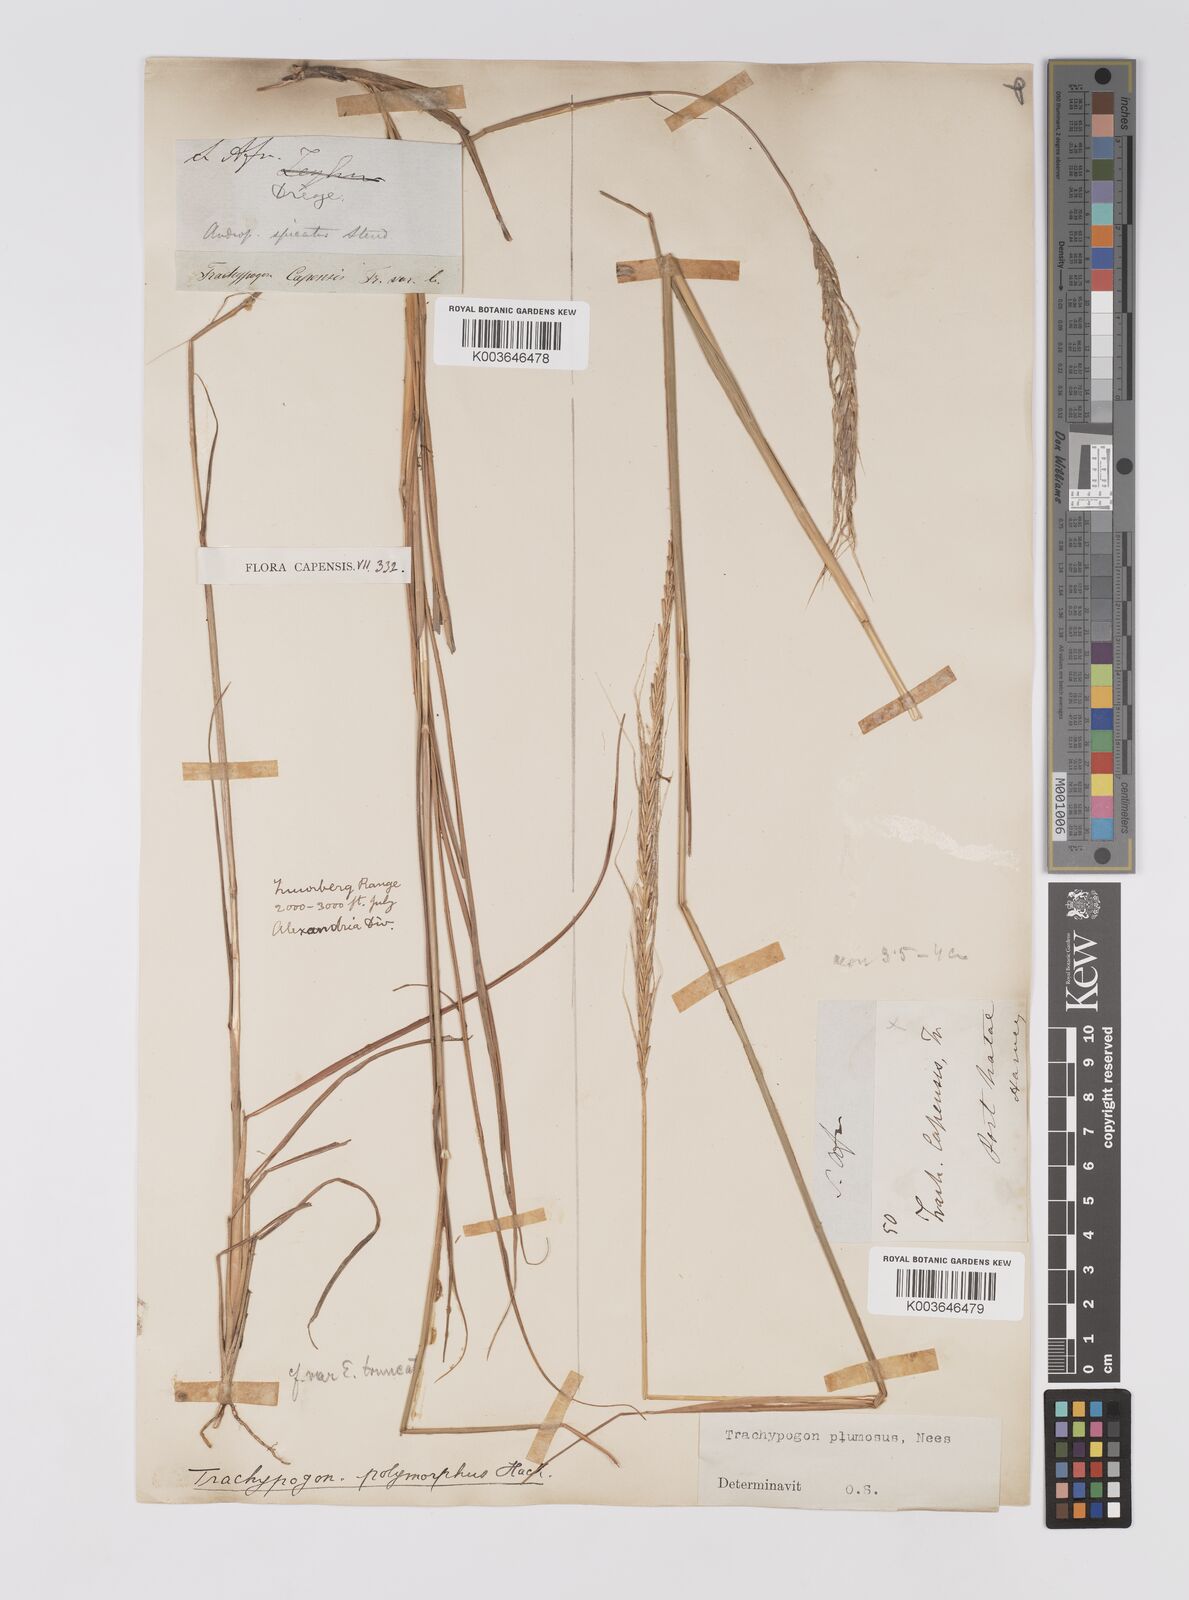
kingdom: Plantae
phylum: Tracheophyta
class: Liliopsida
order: Poales
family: Poaceae
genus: Trachypogon
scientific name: Trachypogon spicatus
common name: Crinkle-awn
